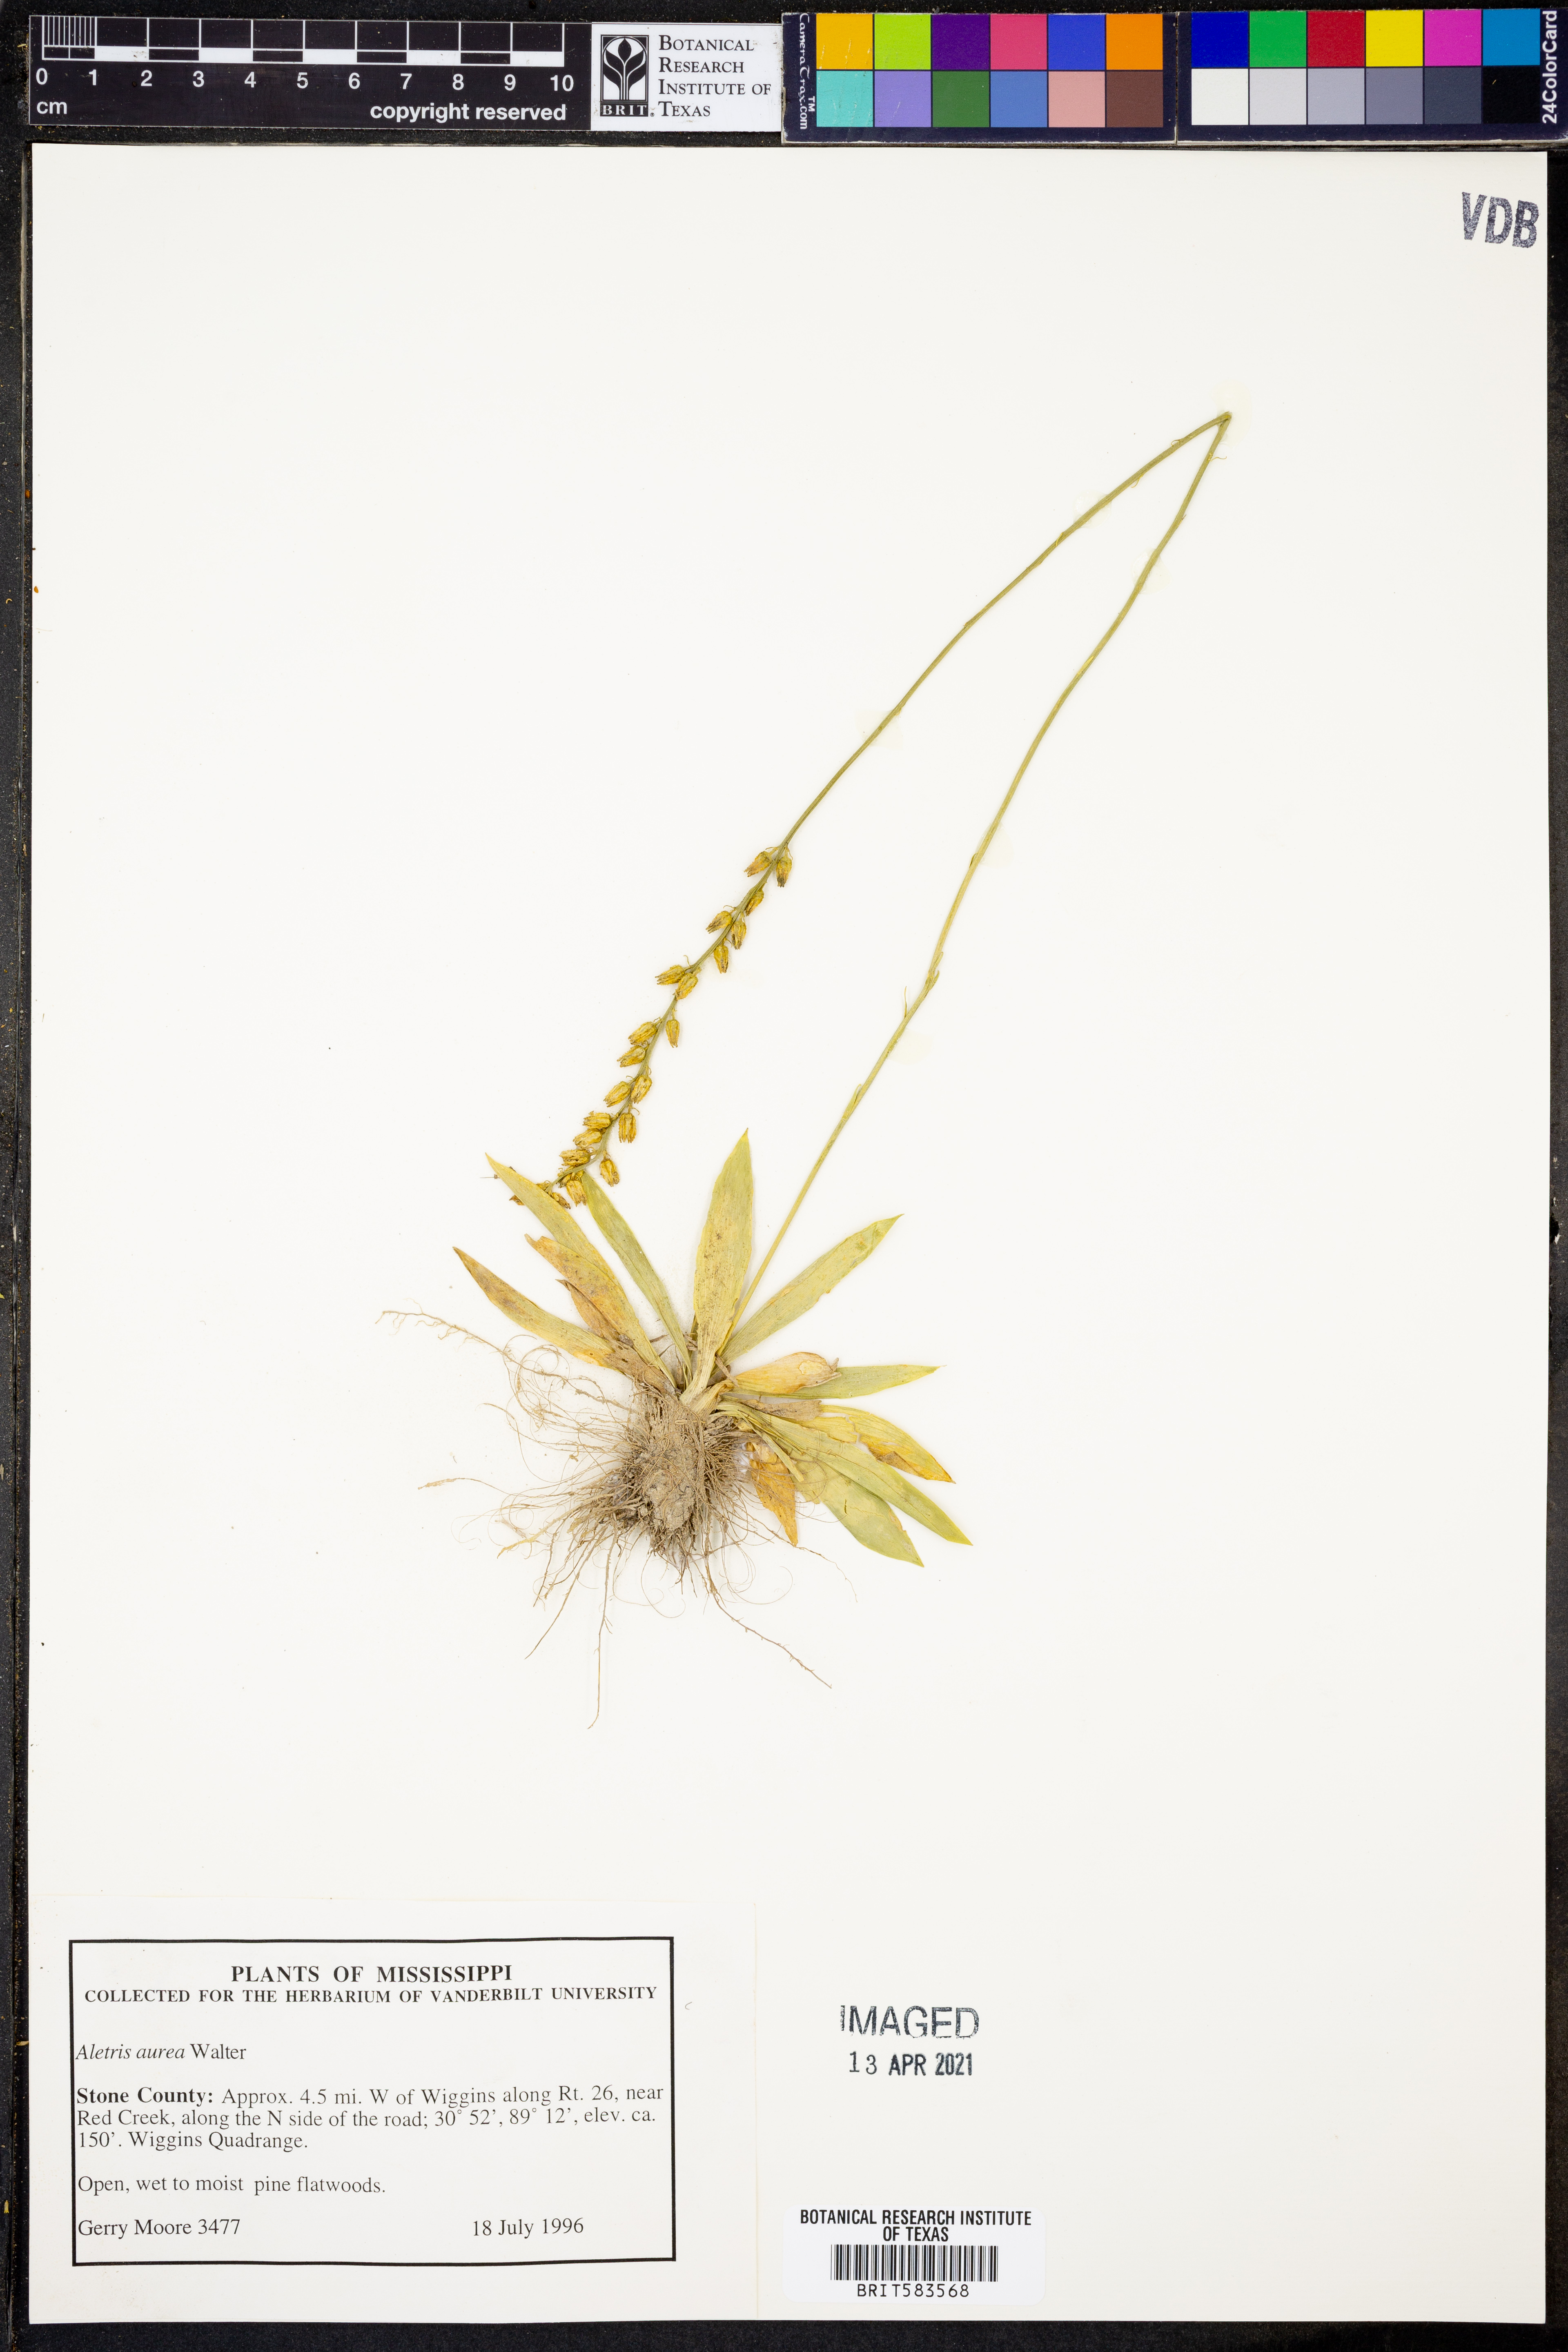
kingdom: Plantae
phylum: Tracheophyta
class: Liliopsida
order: Dioscoreales
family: Nartheciaceae
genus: Aletris
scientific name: Aletris aurea
